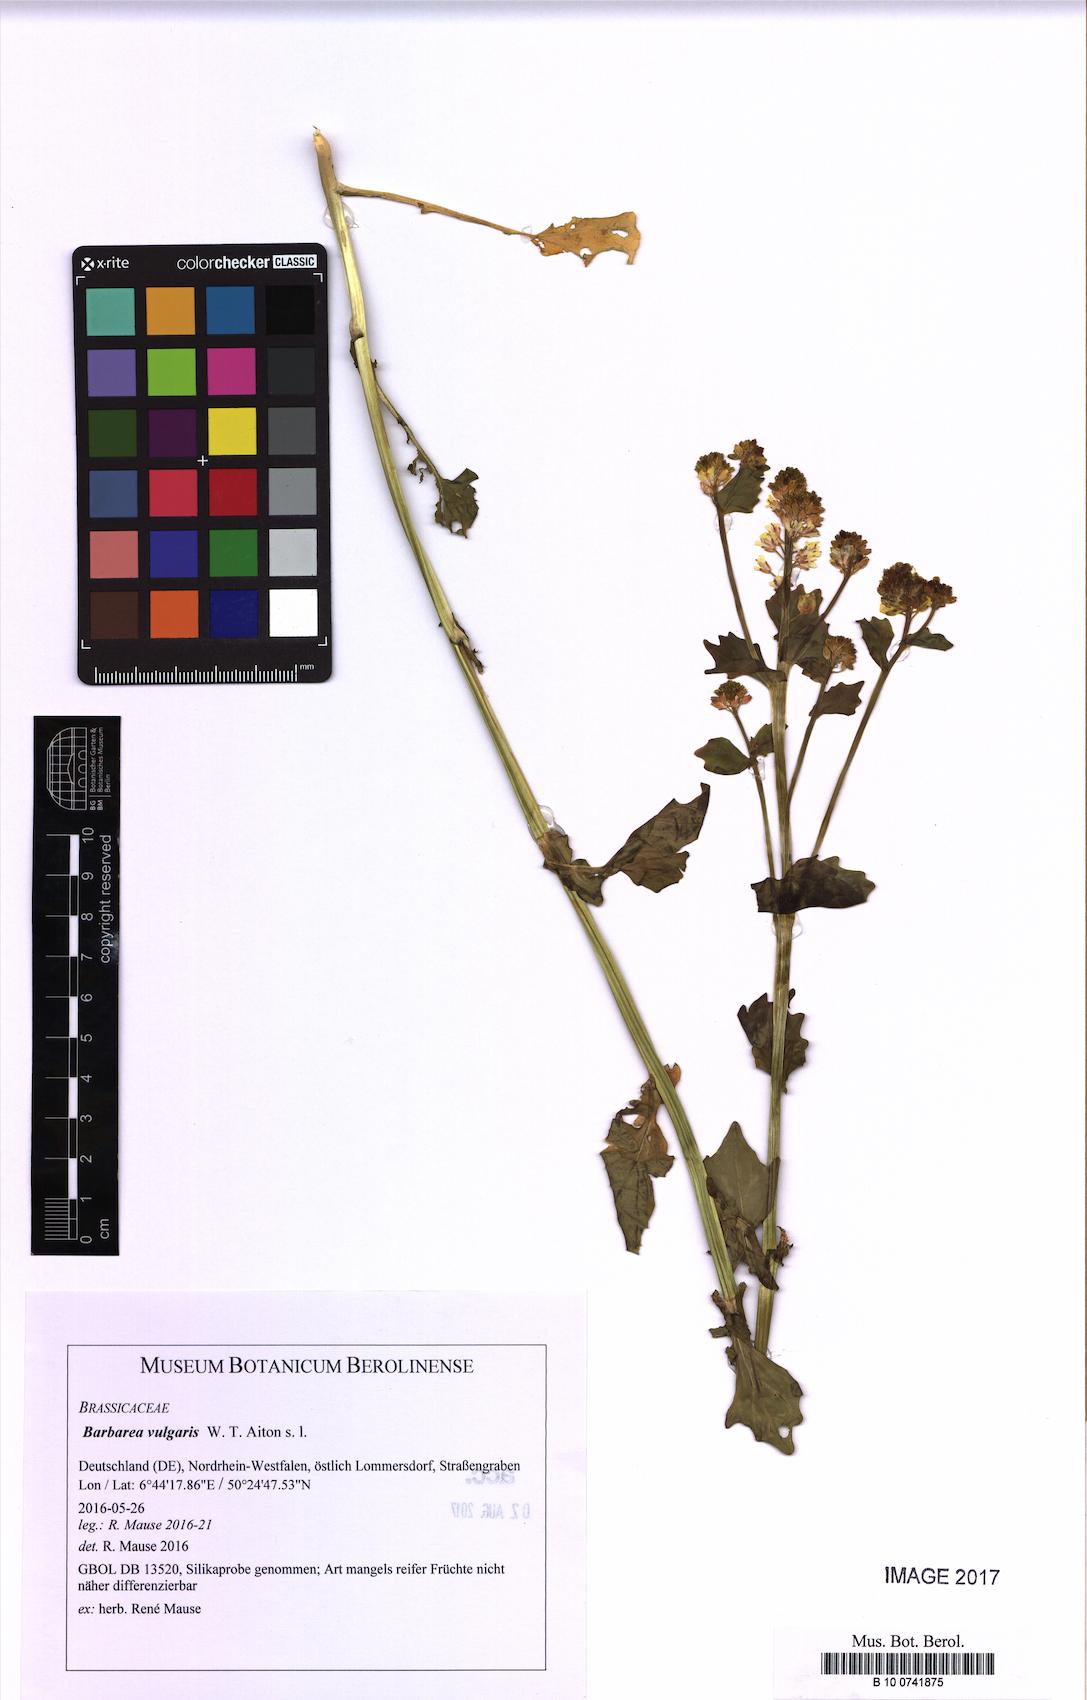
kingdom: Plantae
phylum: Tracheophyta
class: Magnoliopsida
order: Brassicales
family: Brassicaceae
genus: Barbarea
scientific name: Barbarea vulgaris
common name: Cressy-greens
